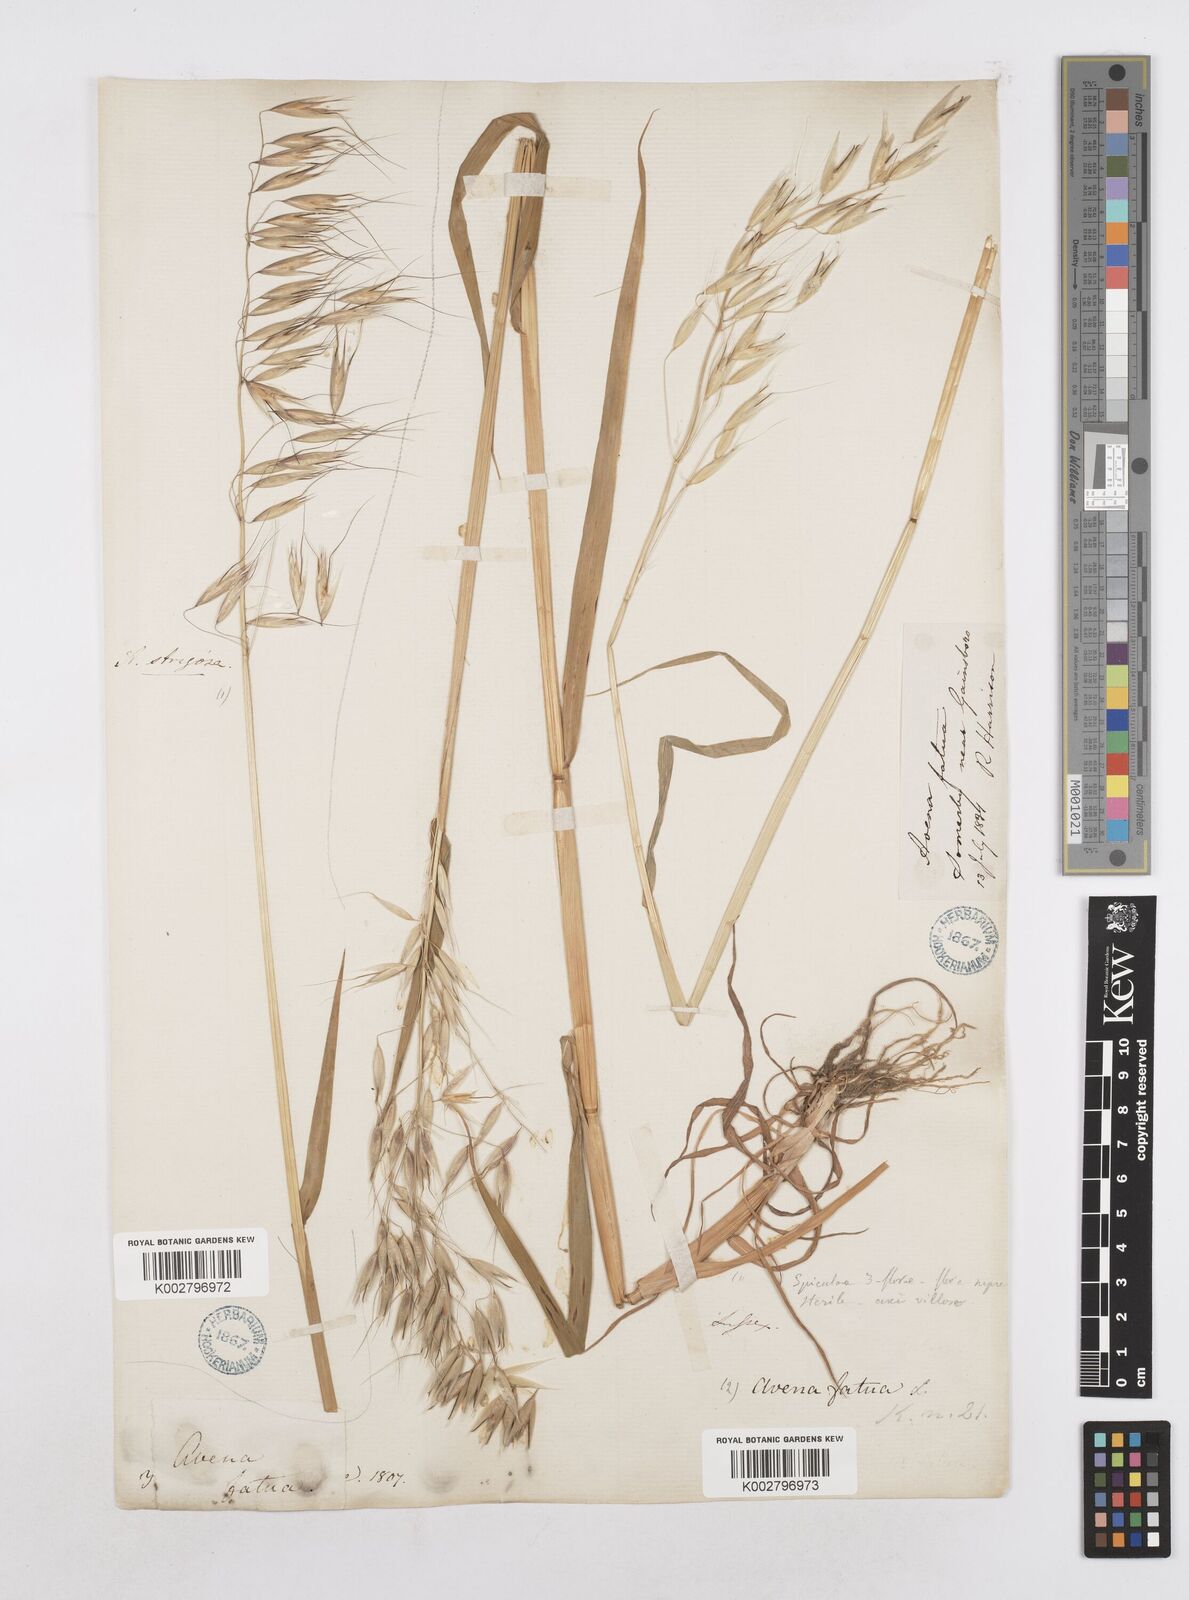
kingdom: Plantae
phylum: Tracheophyta
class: Liliopsida
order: Poales
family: Poaceae
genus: Avena
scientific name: Avena
